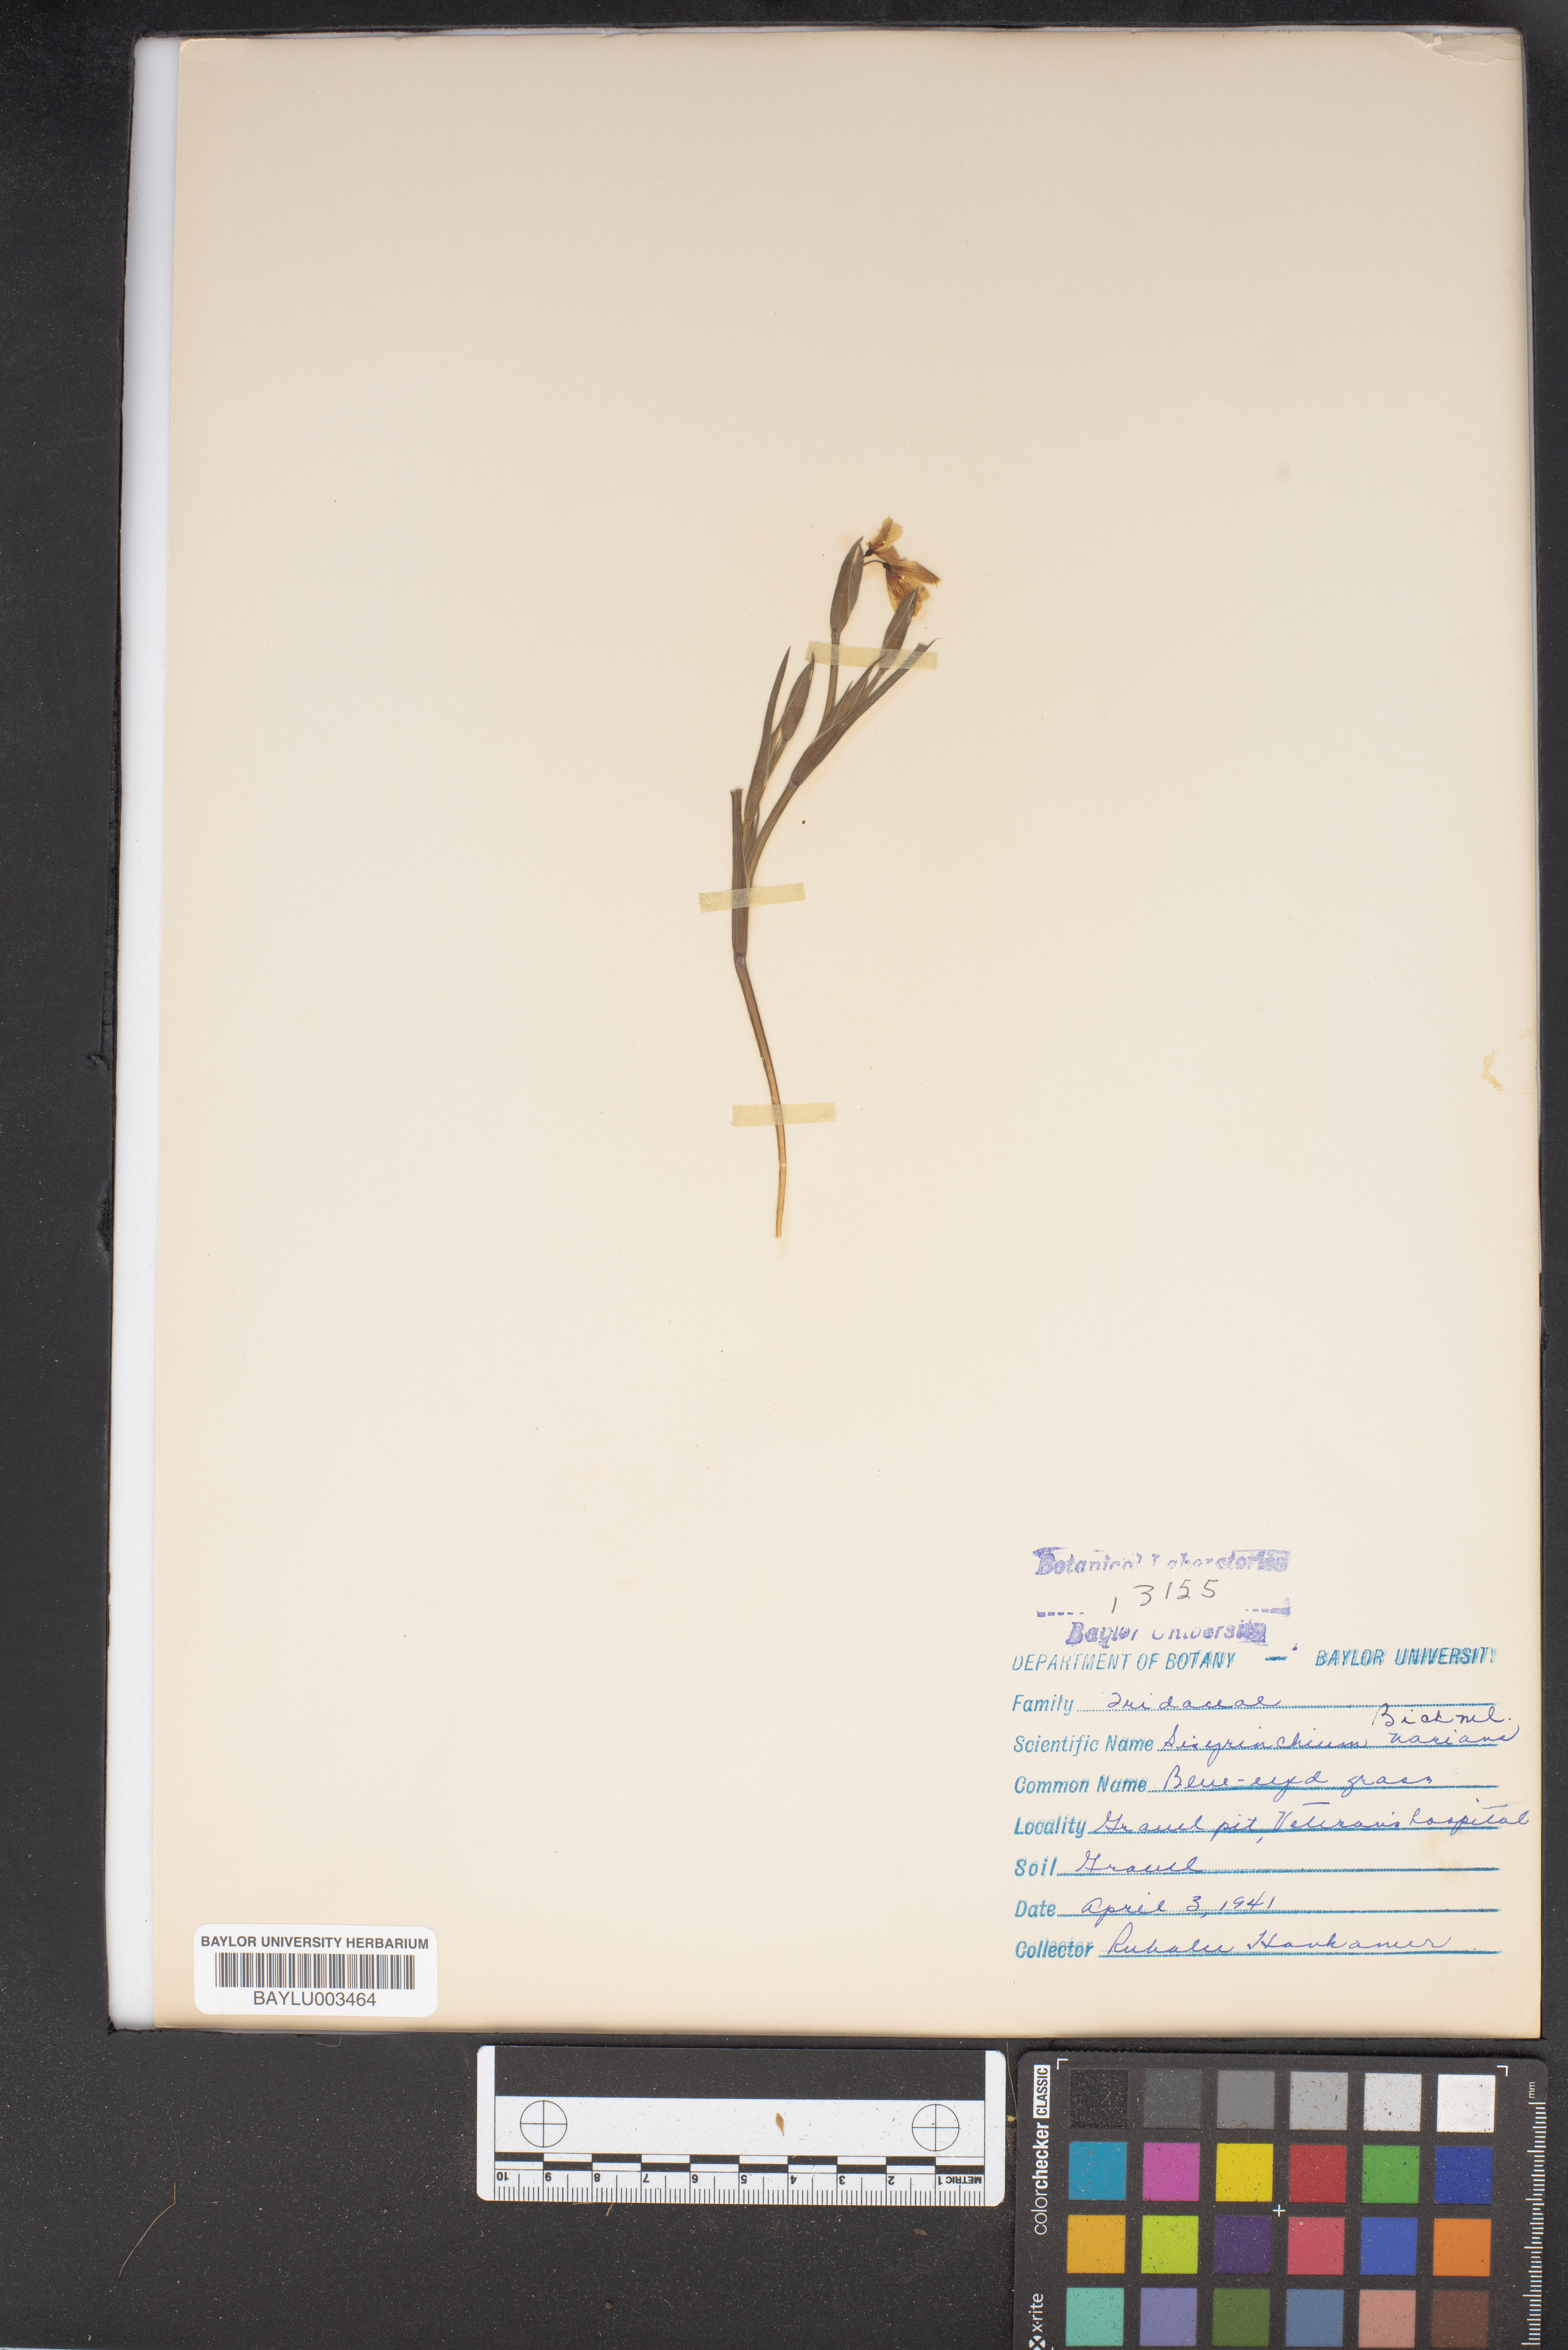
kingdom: Plantae
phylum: Tracheophyta
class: Liliopsida
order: Asparagales
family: Iridaceae
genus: Sisyrinchium
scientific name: Sisyrinchium pruinosum
